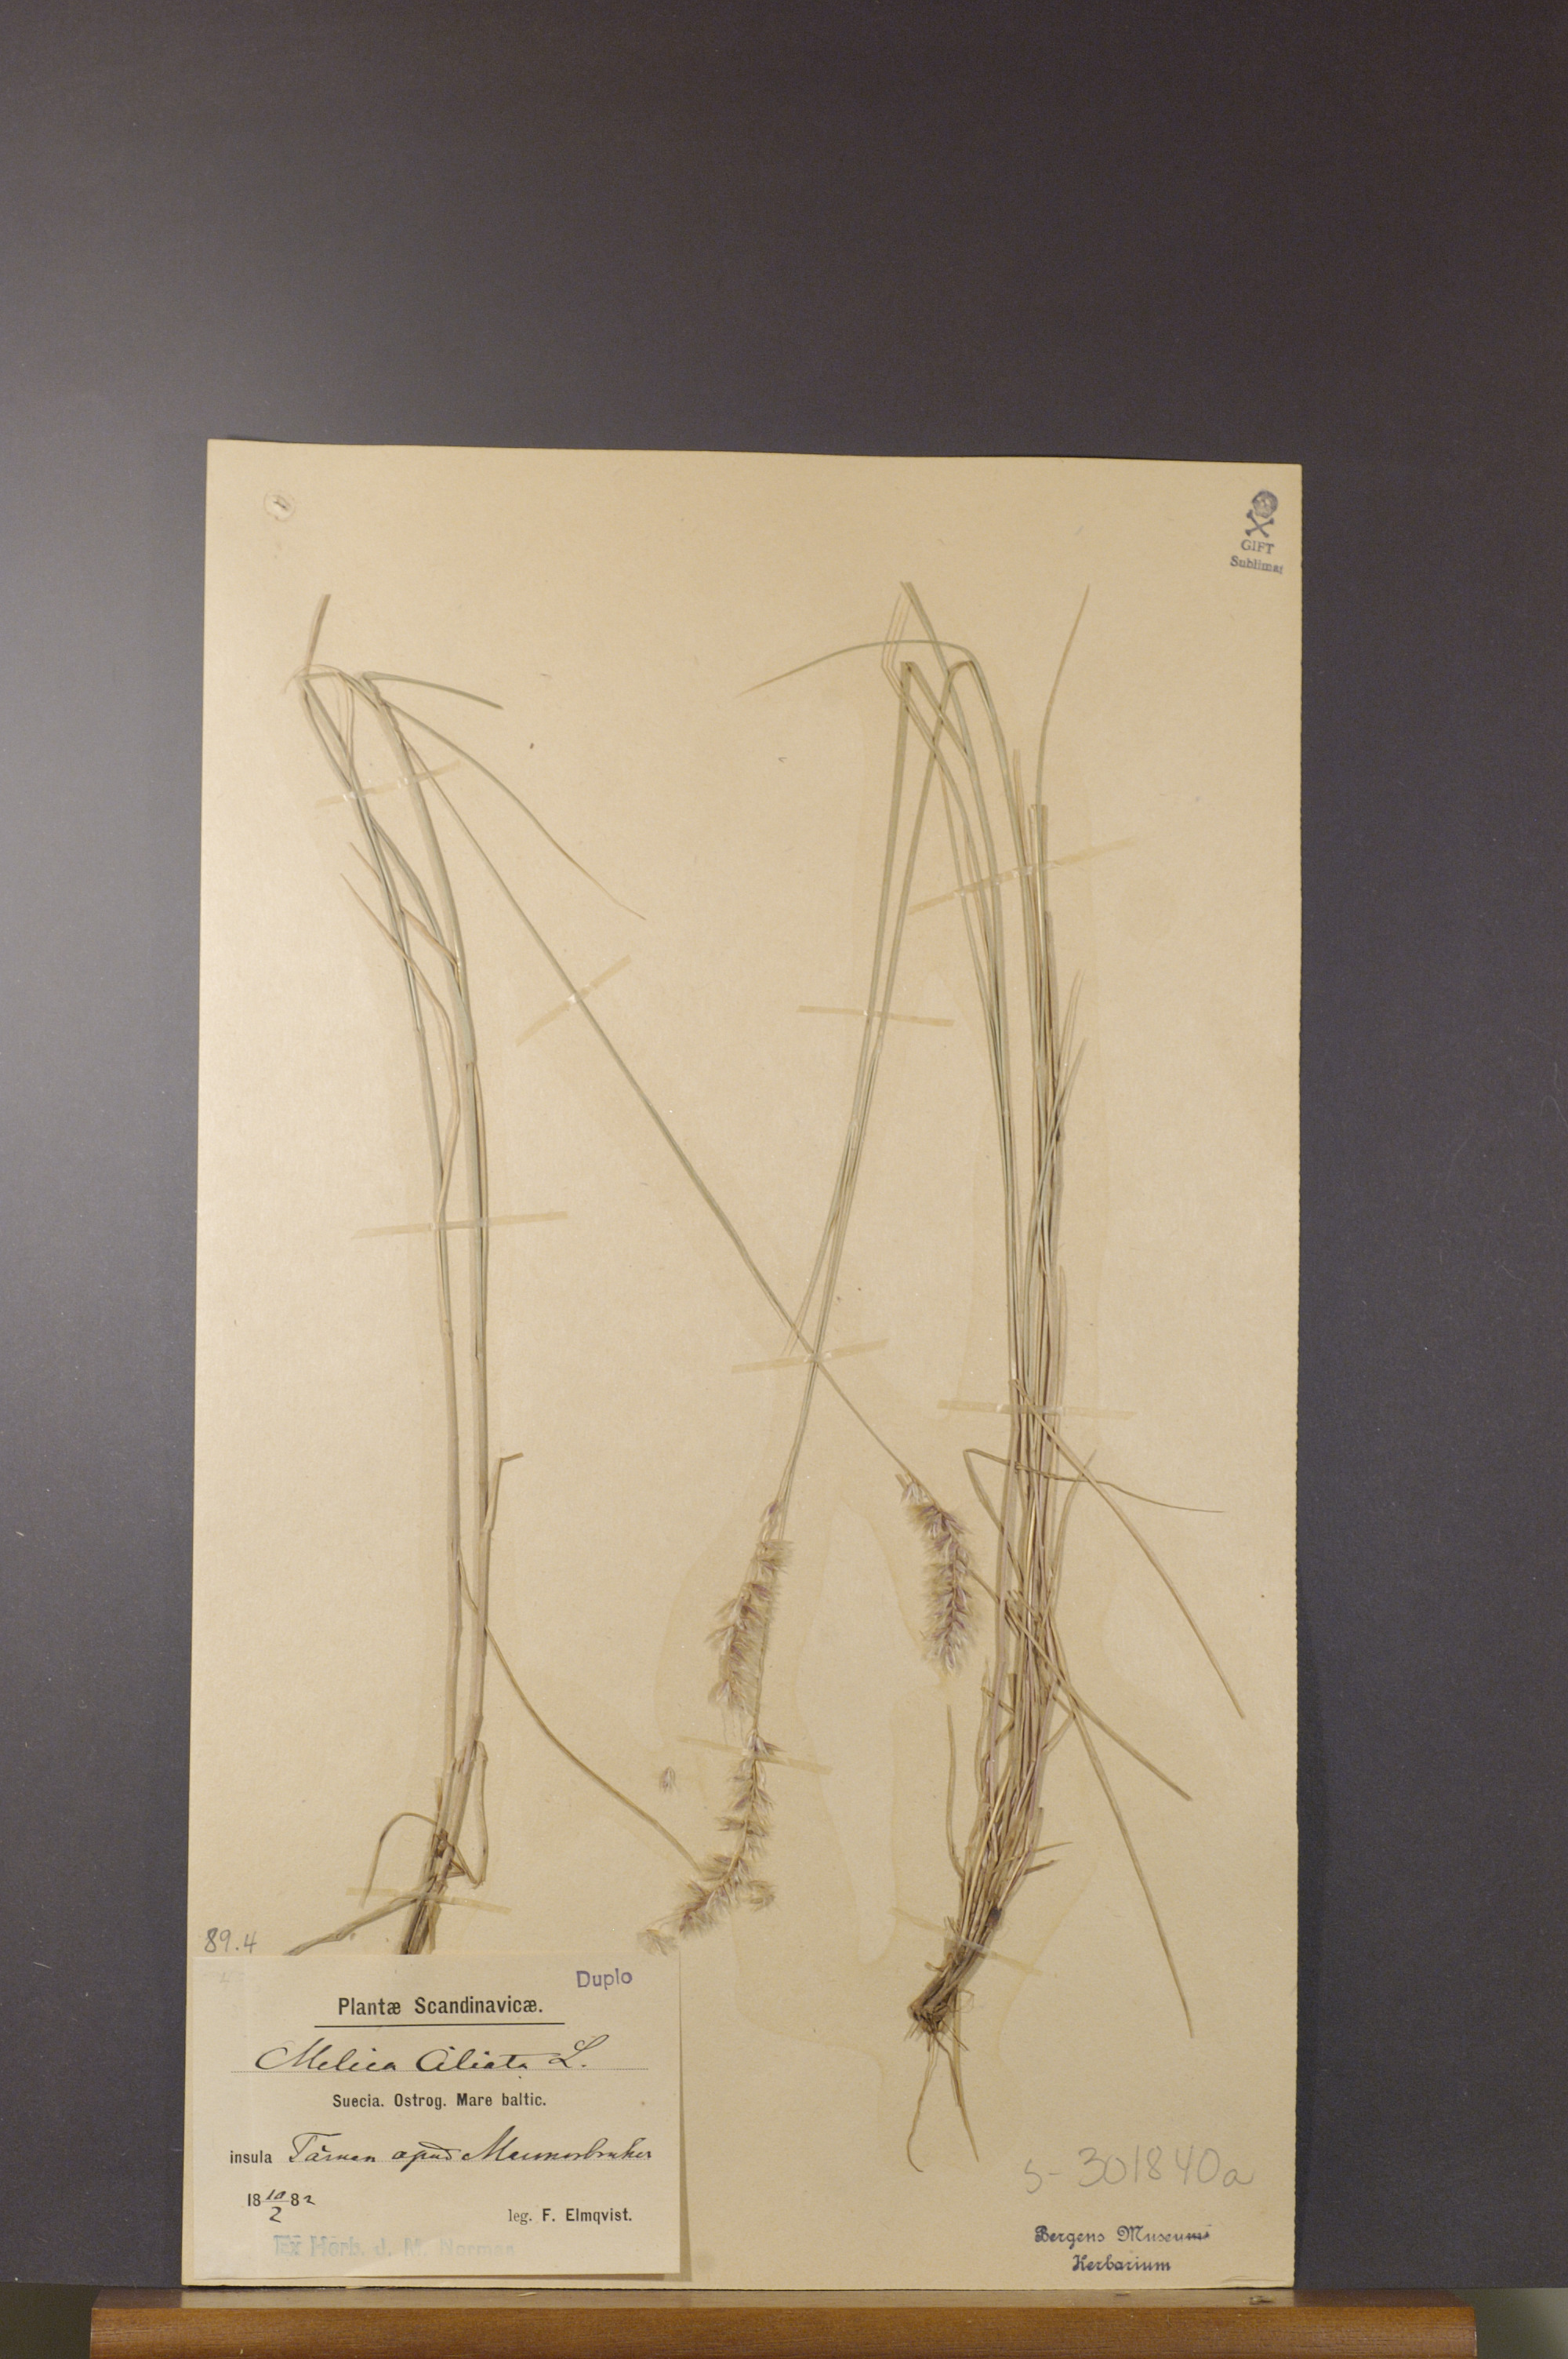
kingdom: Plantae
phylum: Tracheophyta
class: Liliopsida
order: Poales
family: Poaceae
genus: Melica
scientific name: Melica ciliata
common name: Hairy melicgrass
